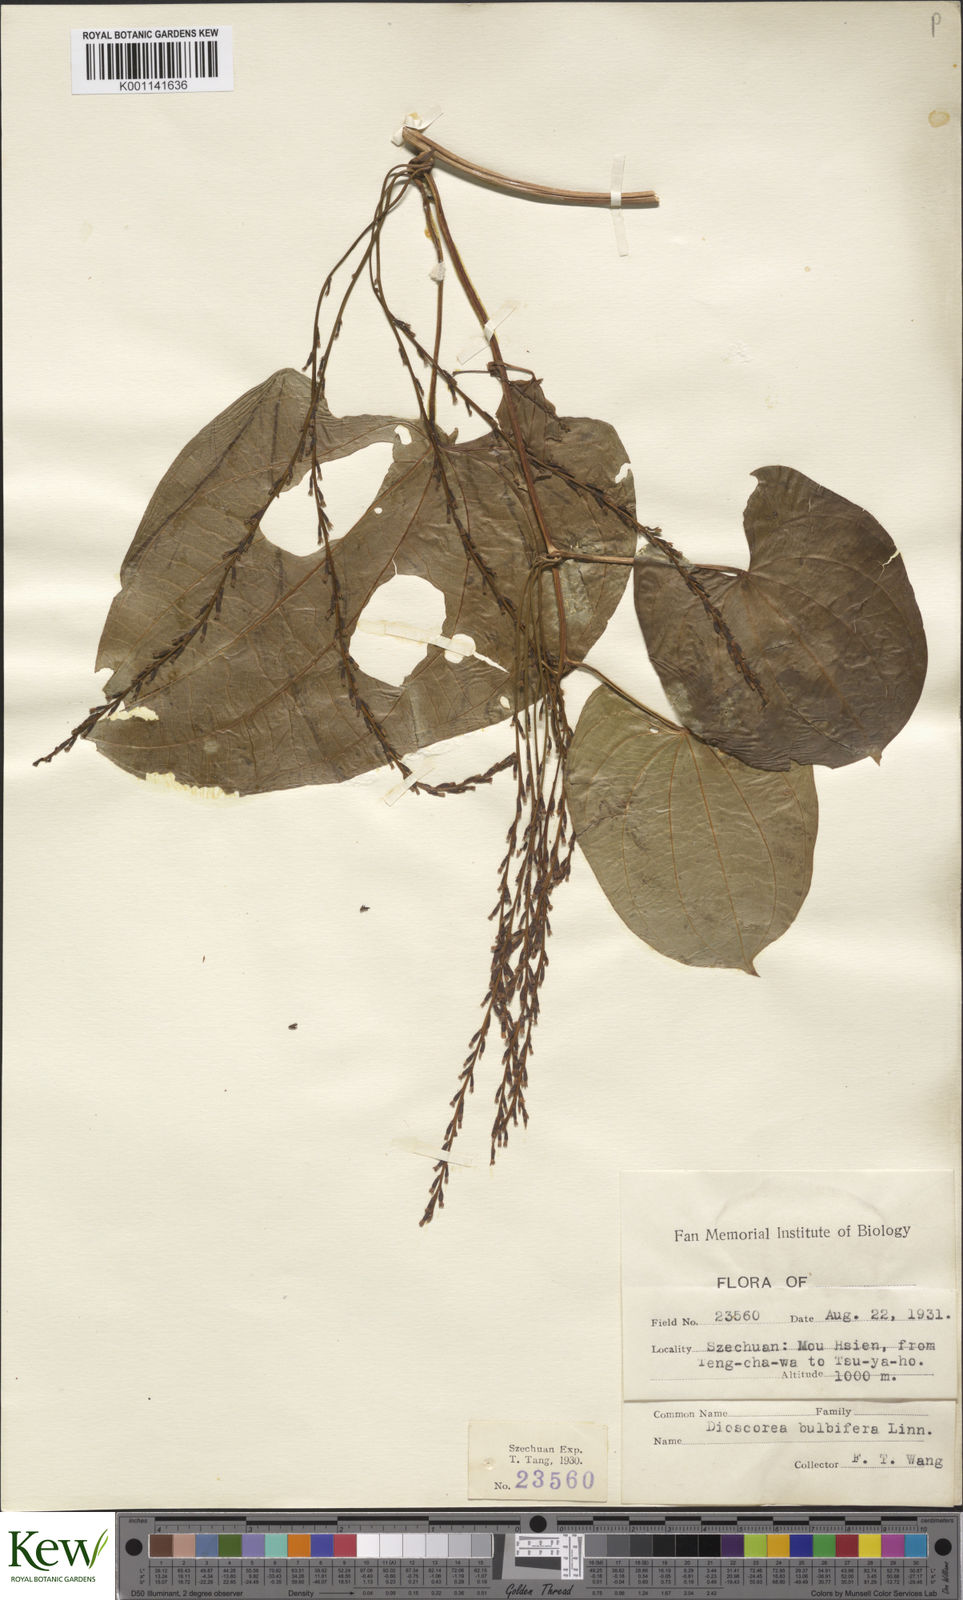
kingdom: Plantae
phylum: Tracheophyta
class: Liliopsida
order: Dioscoreales
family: Dioscoreaceae
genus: Dioscorea
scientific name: Dioscorea bulbifera
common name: Air yam
